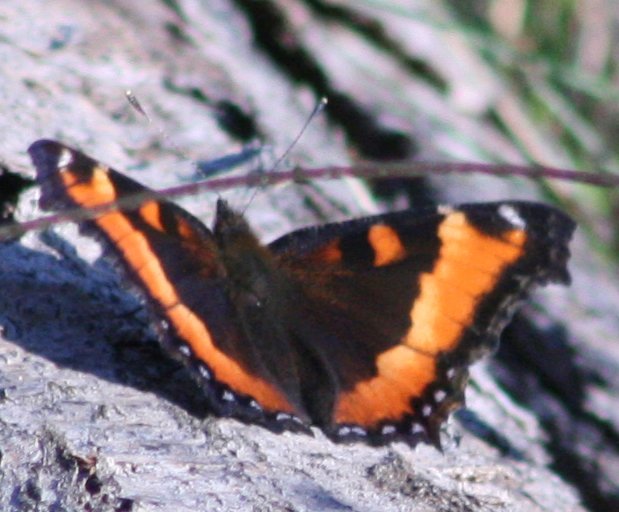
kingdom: Animalia
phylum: Arthropoda
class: Insecta
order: Lepidoptera
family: Nymphalidae
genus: Aglais
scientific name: Aglais milberti
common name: Milbert's Tortoiseshell
